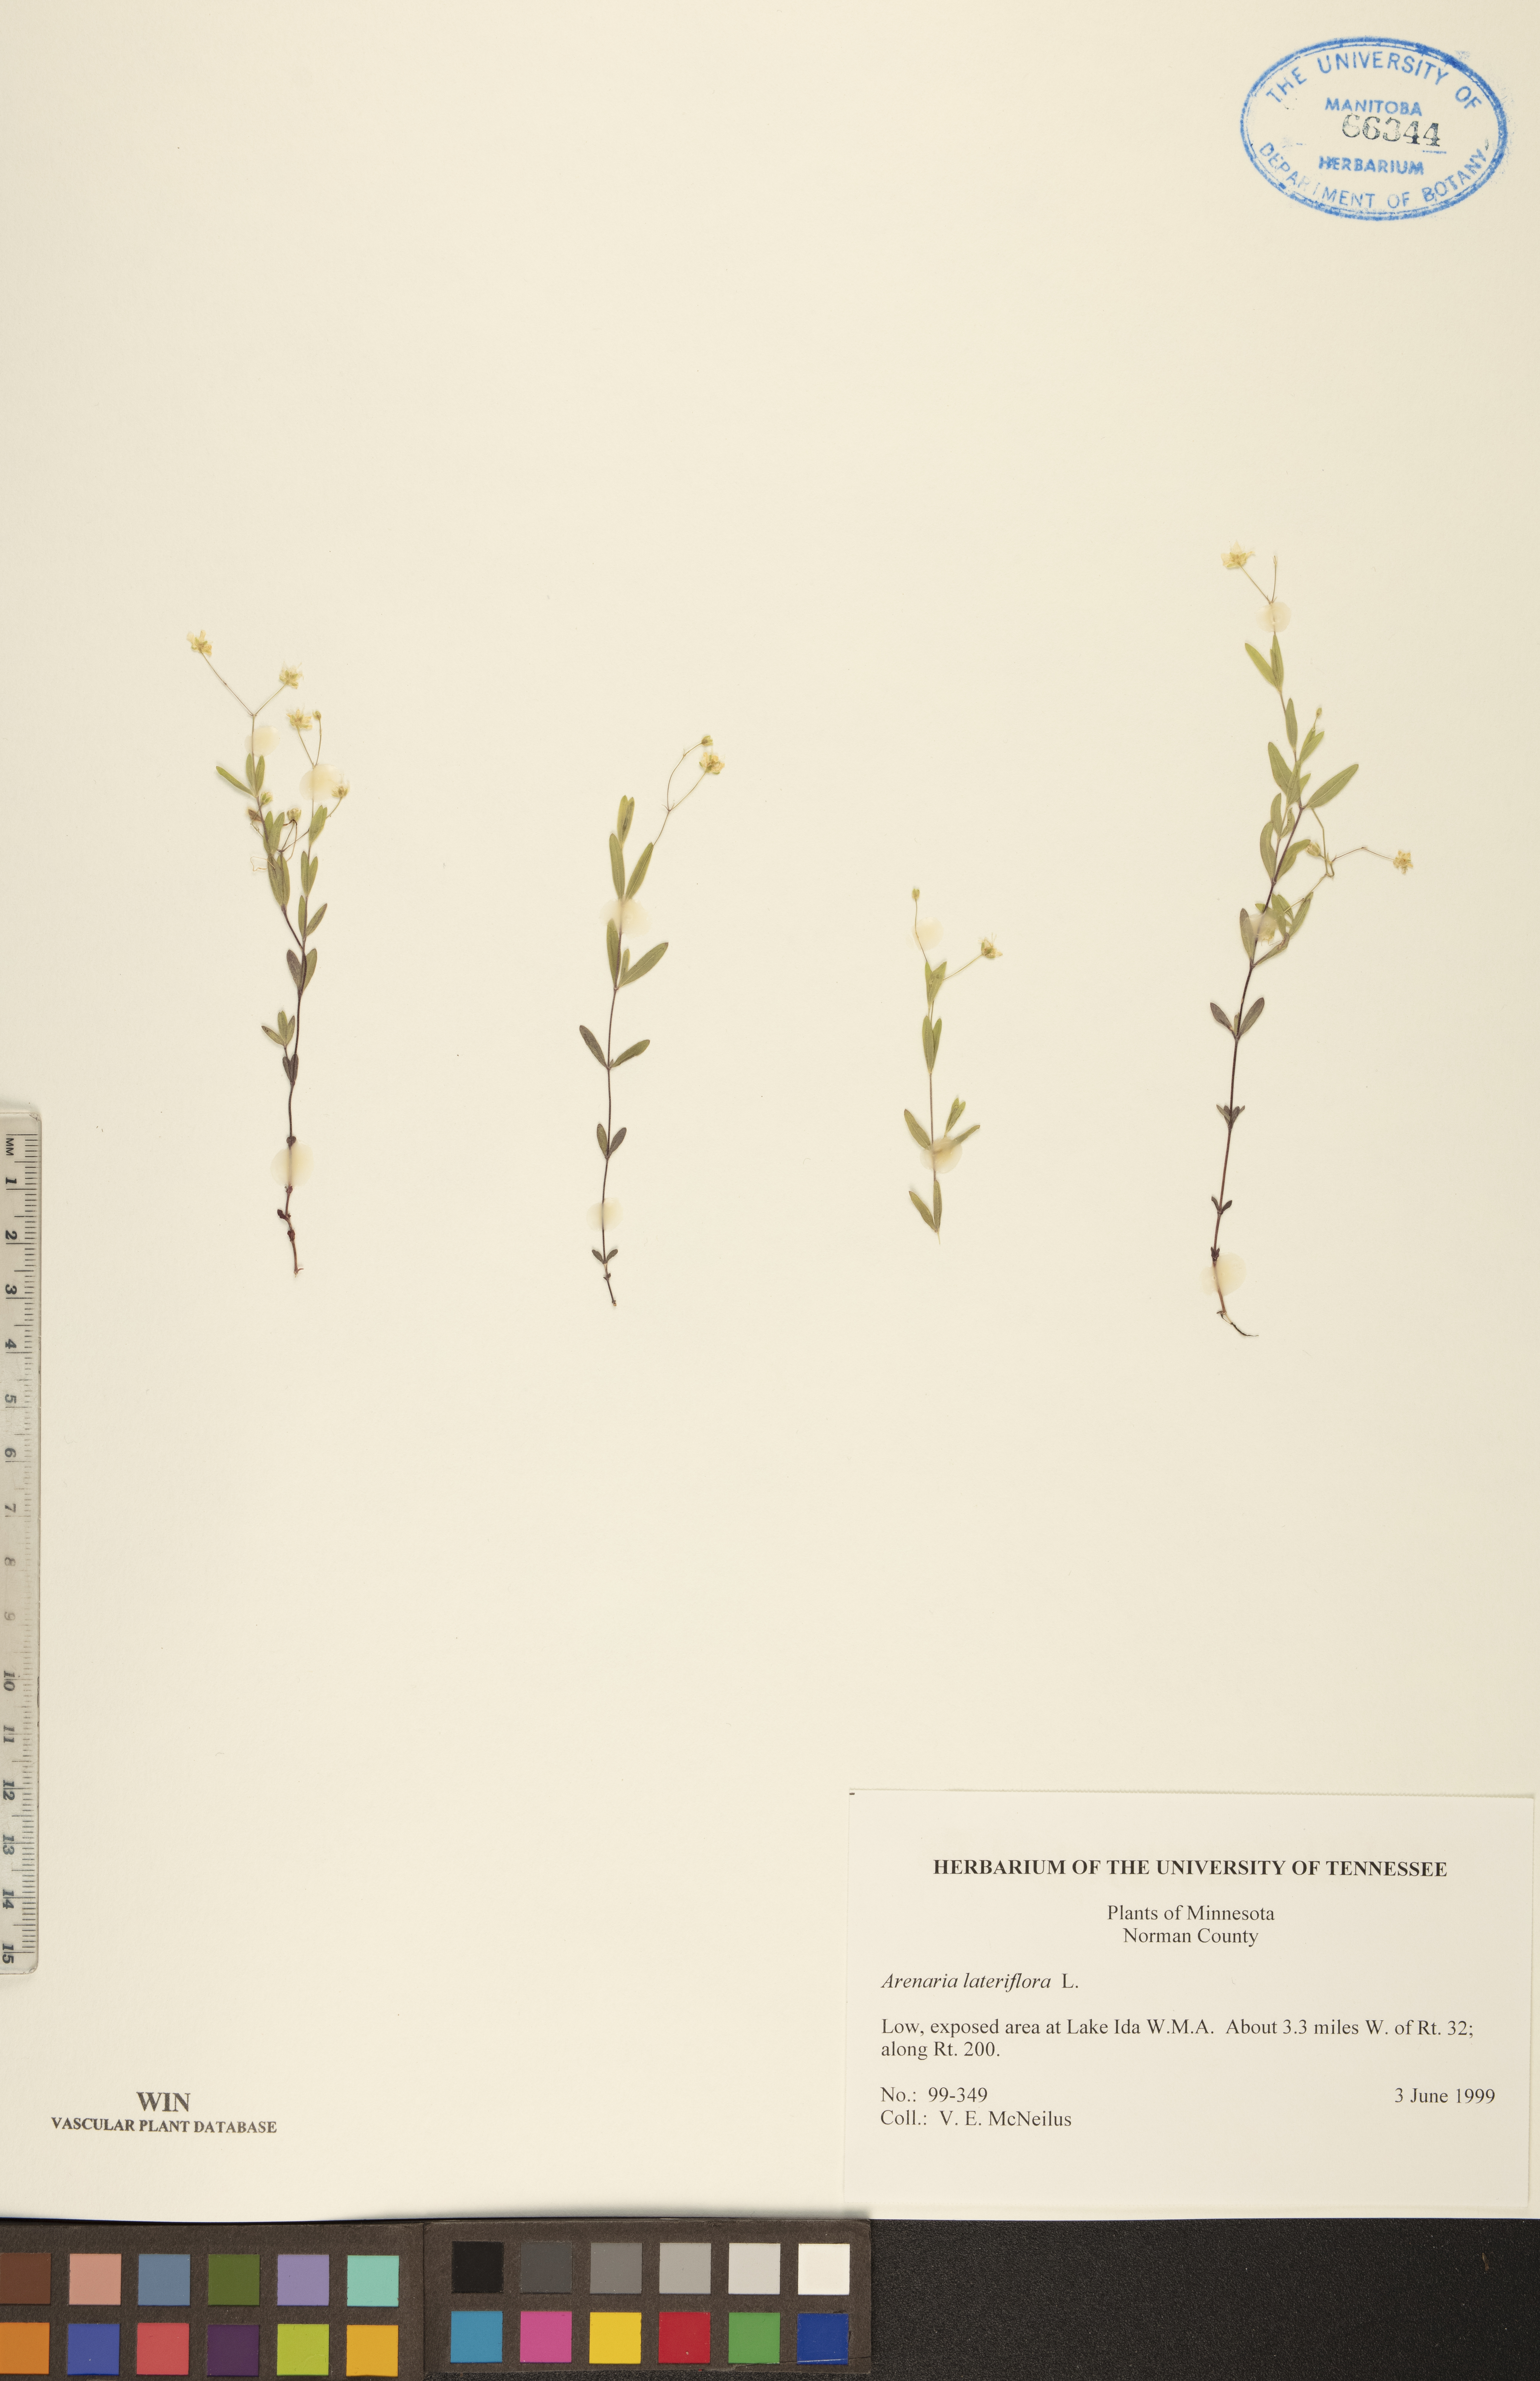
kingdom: Plantae
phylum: Tracheophyta
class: Magnoliopsida
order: Caryophyllales
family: Caryophyllaceae
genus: Moehringia
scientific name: Moehringia lateriflora
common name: Blunt-leaved sandwort
